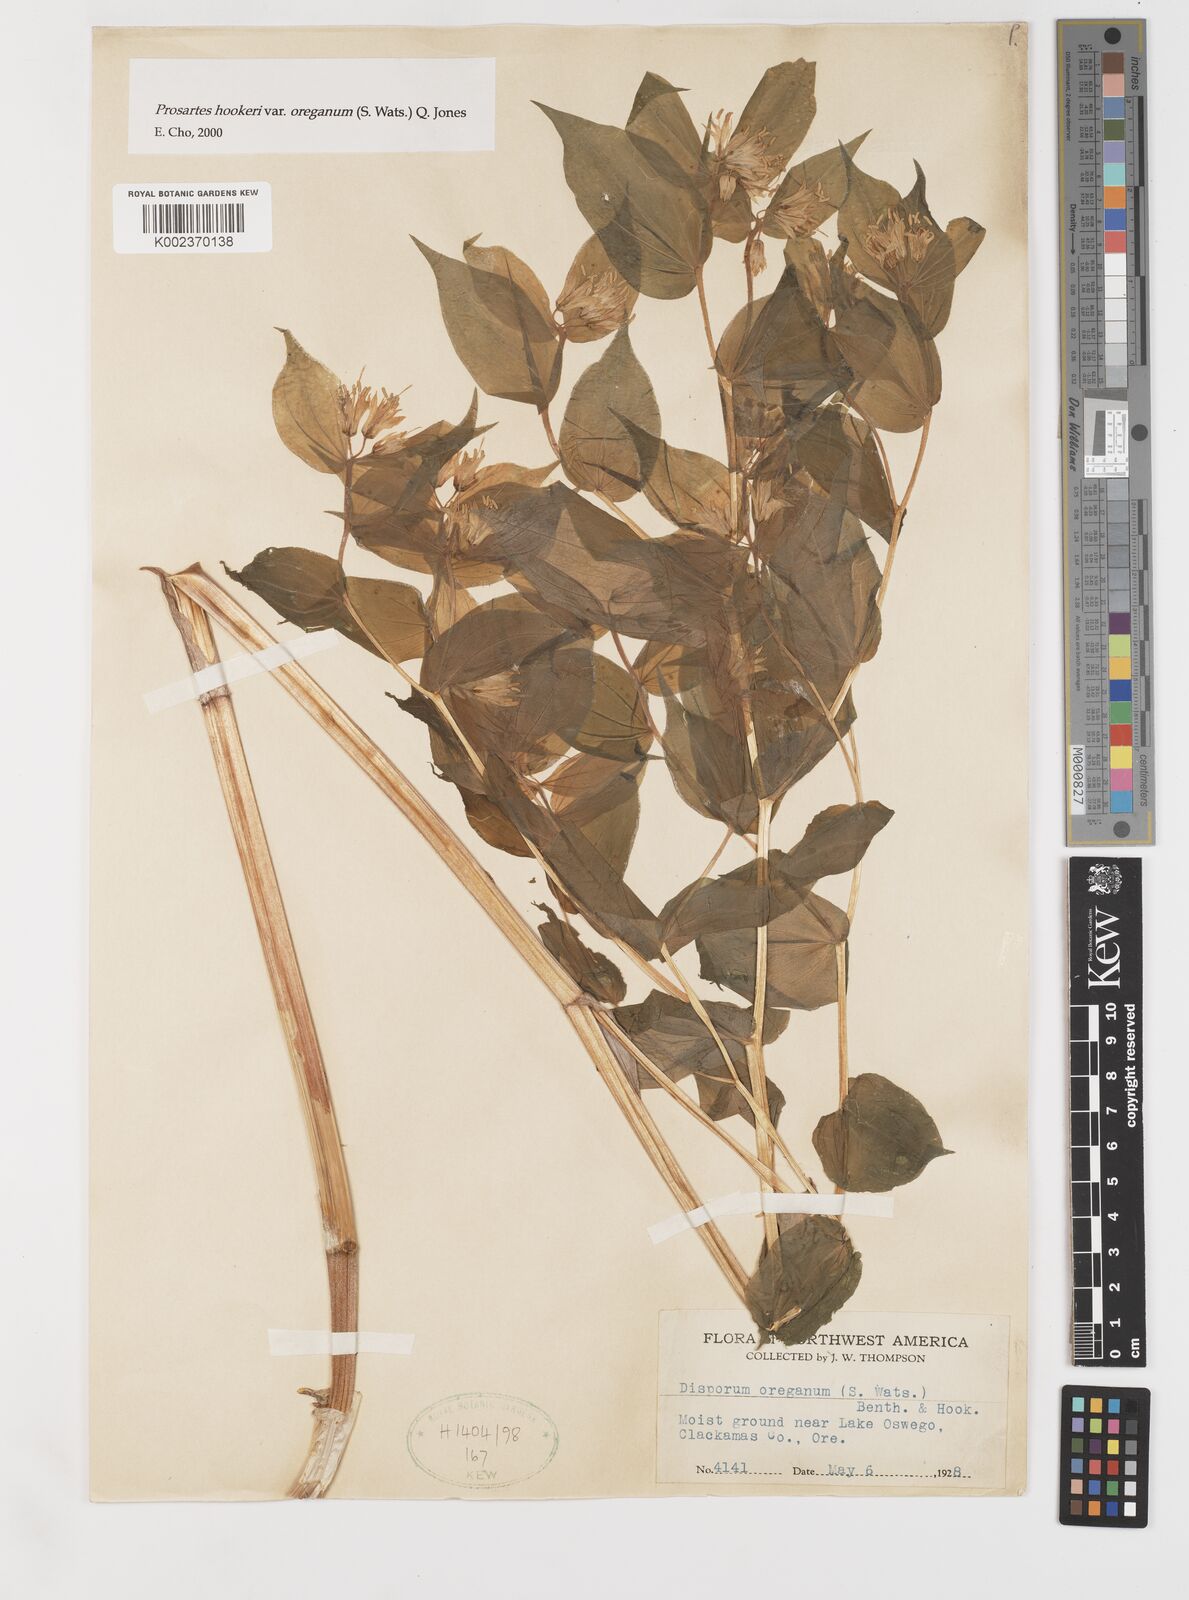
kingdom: Plantae
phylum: Tracheophyta
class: Liliopsida
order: Liliales
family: Liliaceae
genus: Prosartes
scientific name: Prosartes hookeri
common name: Fairy-bells
